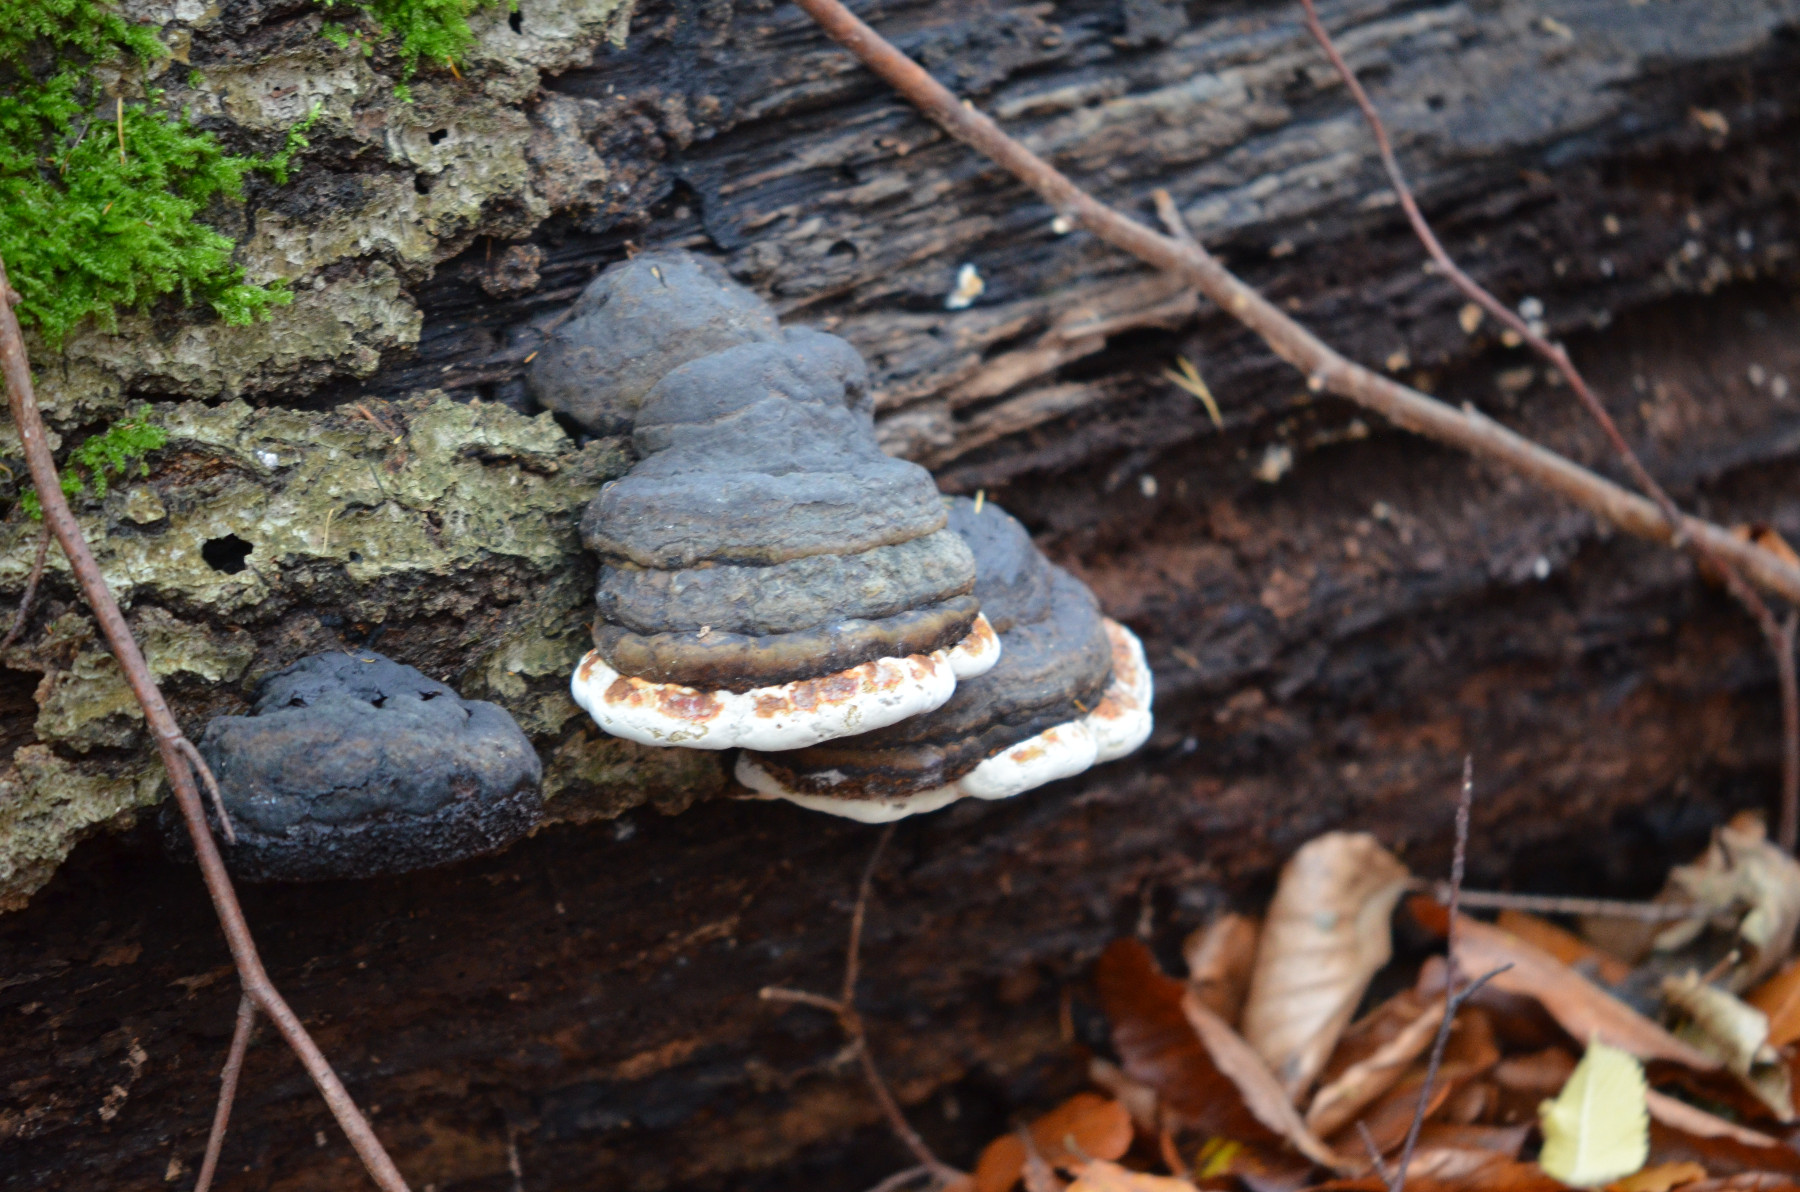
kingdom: Fungi
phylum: Basidiomycota
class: Agaricomycetes
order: Polyporales
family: Polyporaceae
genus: Fomes
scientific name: Fomes fomentarius
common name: tøndersvamp
